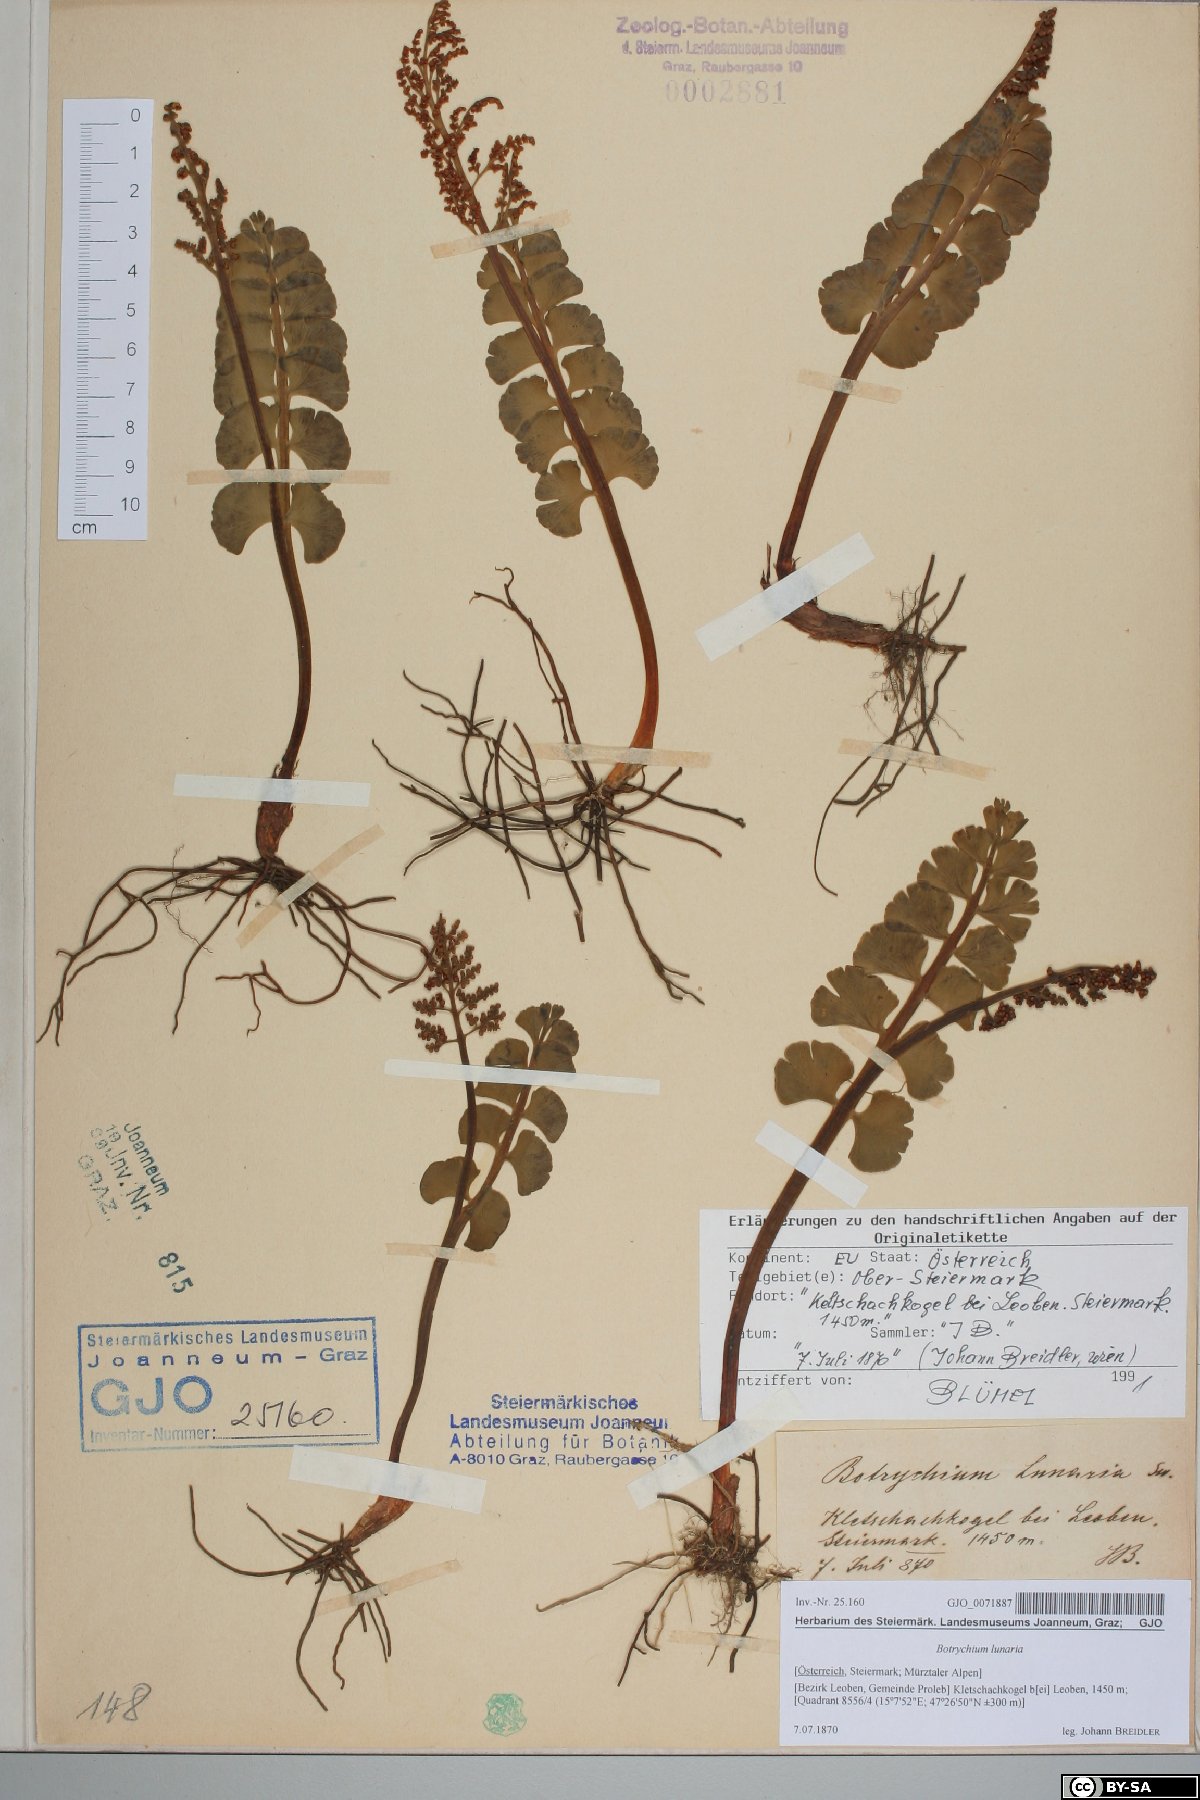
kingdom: Plantae
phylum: Tracheophyta
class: Polypodiopsida
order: Ophioglossales
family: Ophioglossaceae
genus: Botrychium
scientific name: Botrychium lunaria
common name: Moonwort
